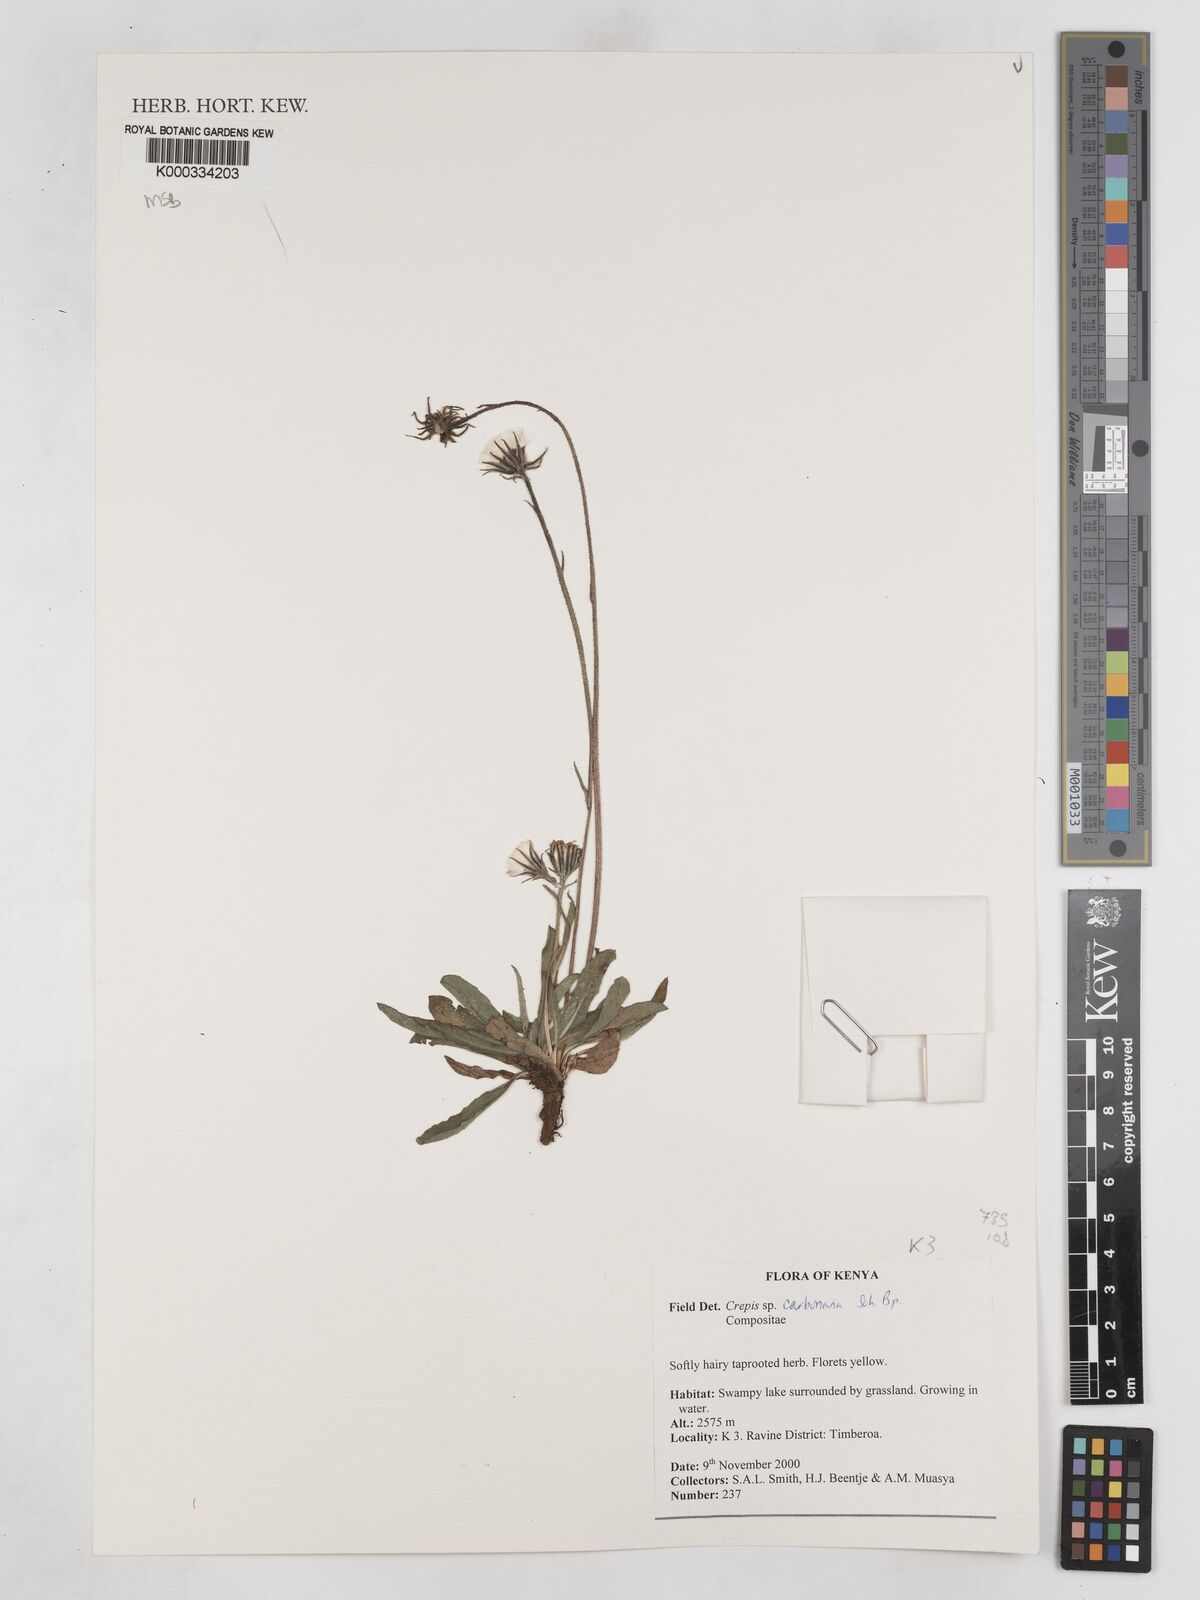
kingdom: Plantae
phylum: Tracheophyta
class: Magnoliopsida
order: Asterales
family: Asteraceae
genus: Crepis
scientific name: Crepis carbonaria
